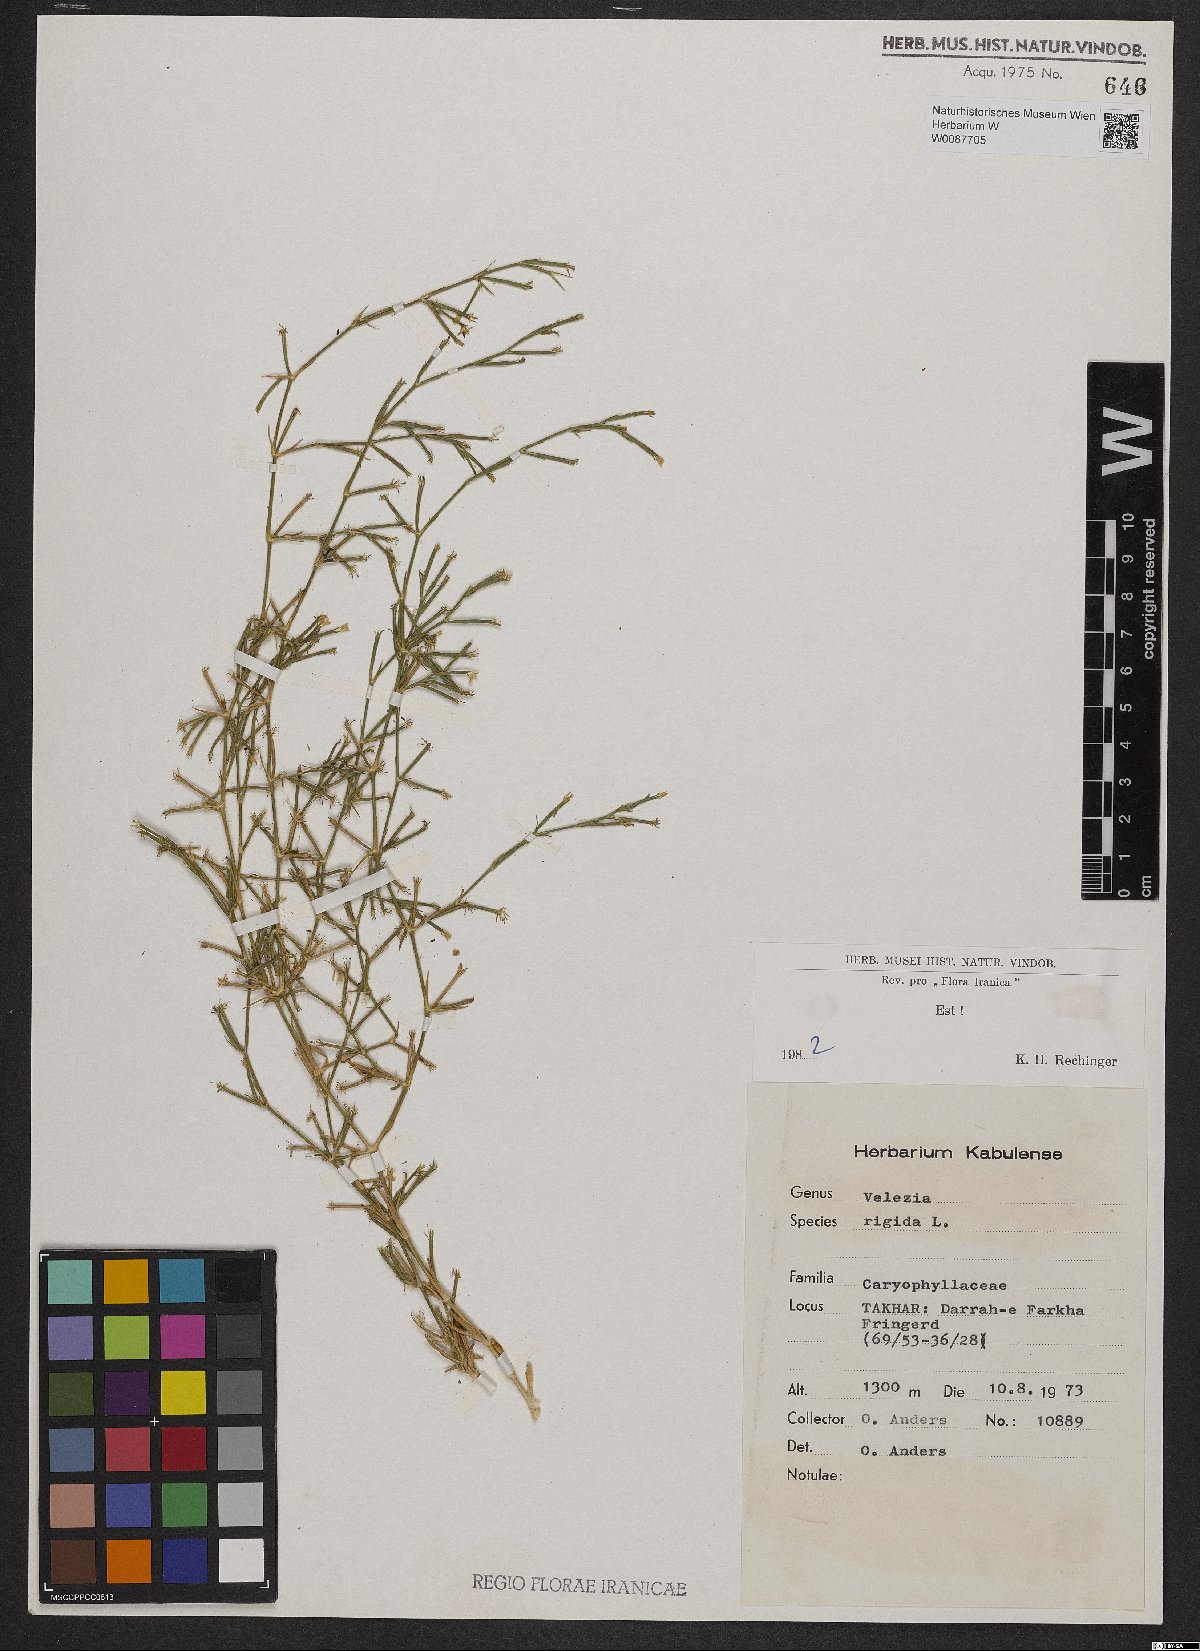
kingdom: Plantae
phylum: Tracheophyta
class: Magnoliopsida
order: Caryophyllales
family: Caryophyllaceae
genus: Dianthus
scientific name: Dianthus nudiflorus
